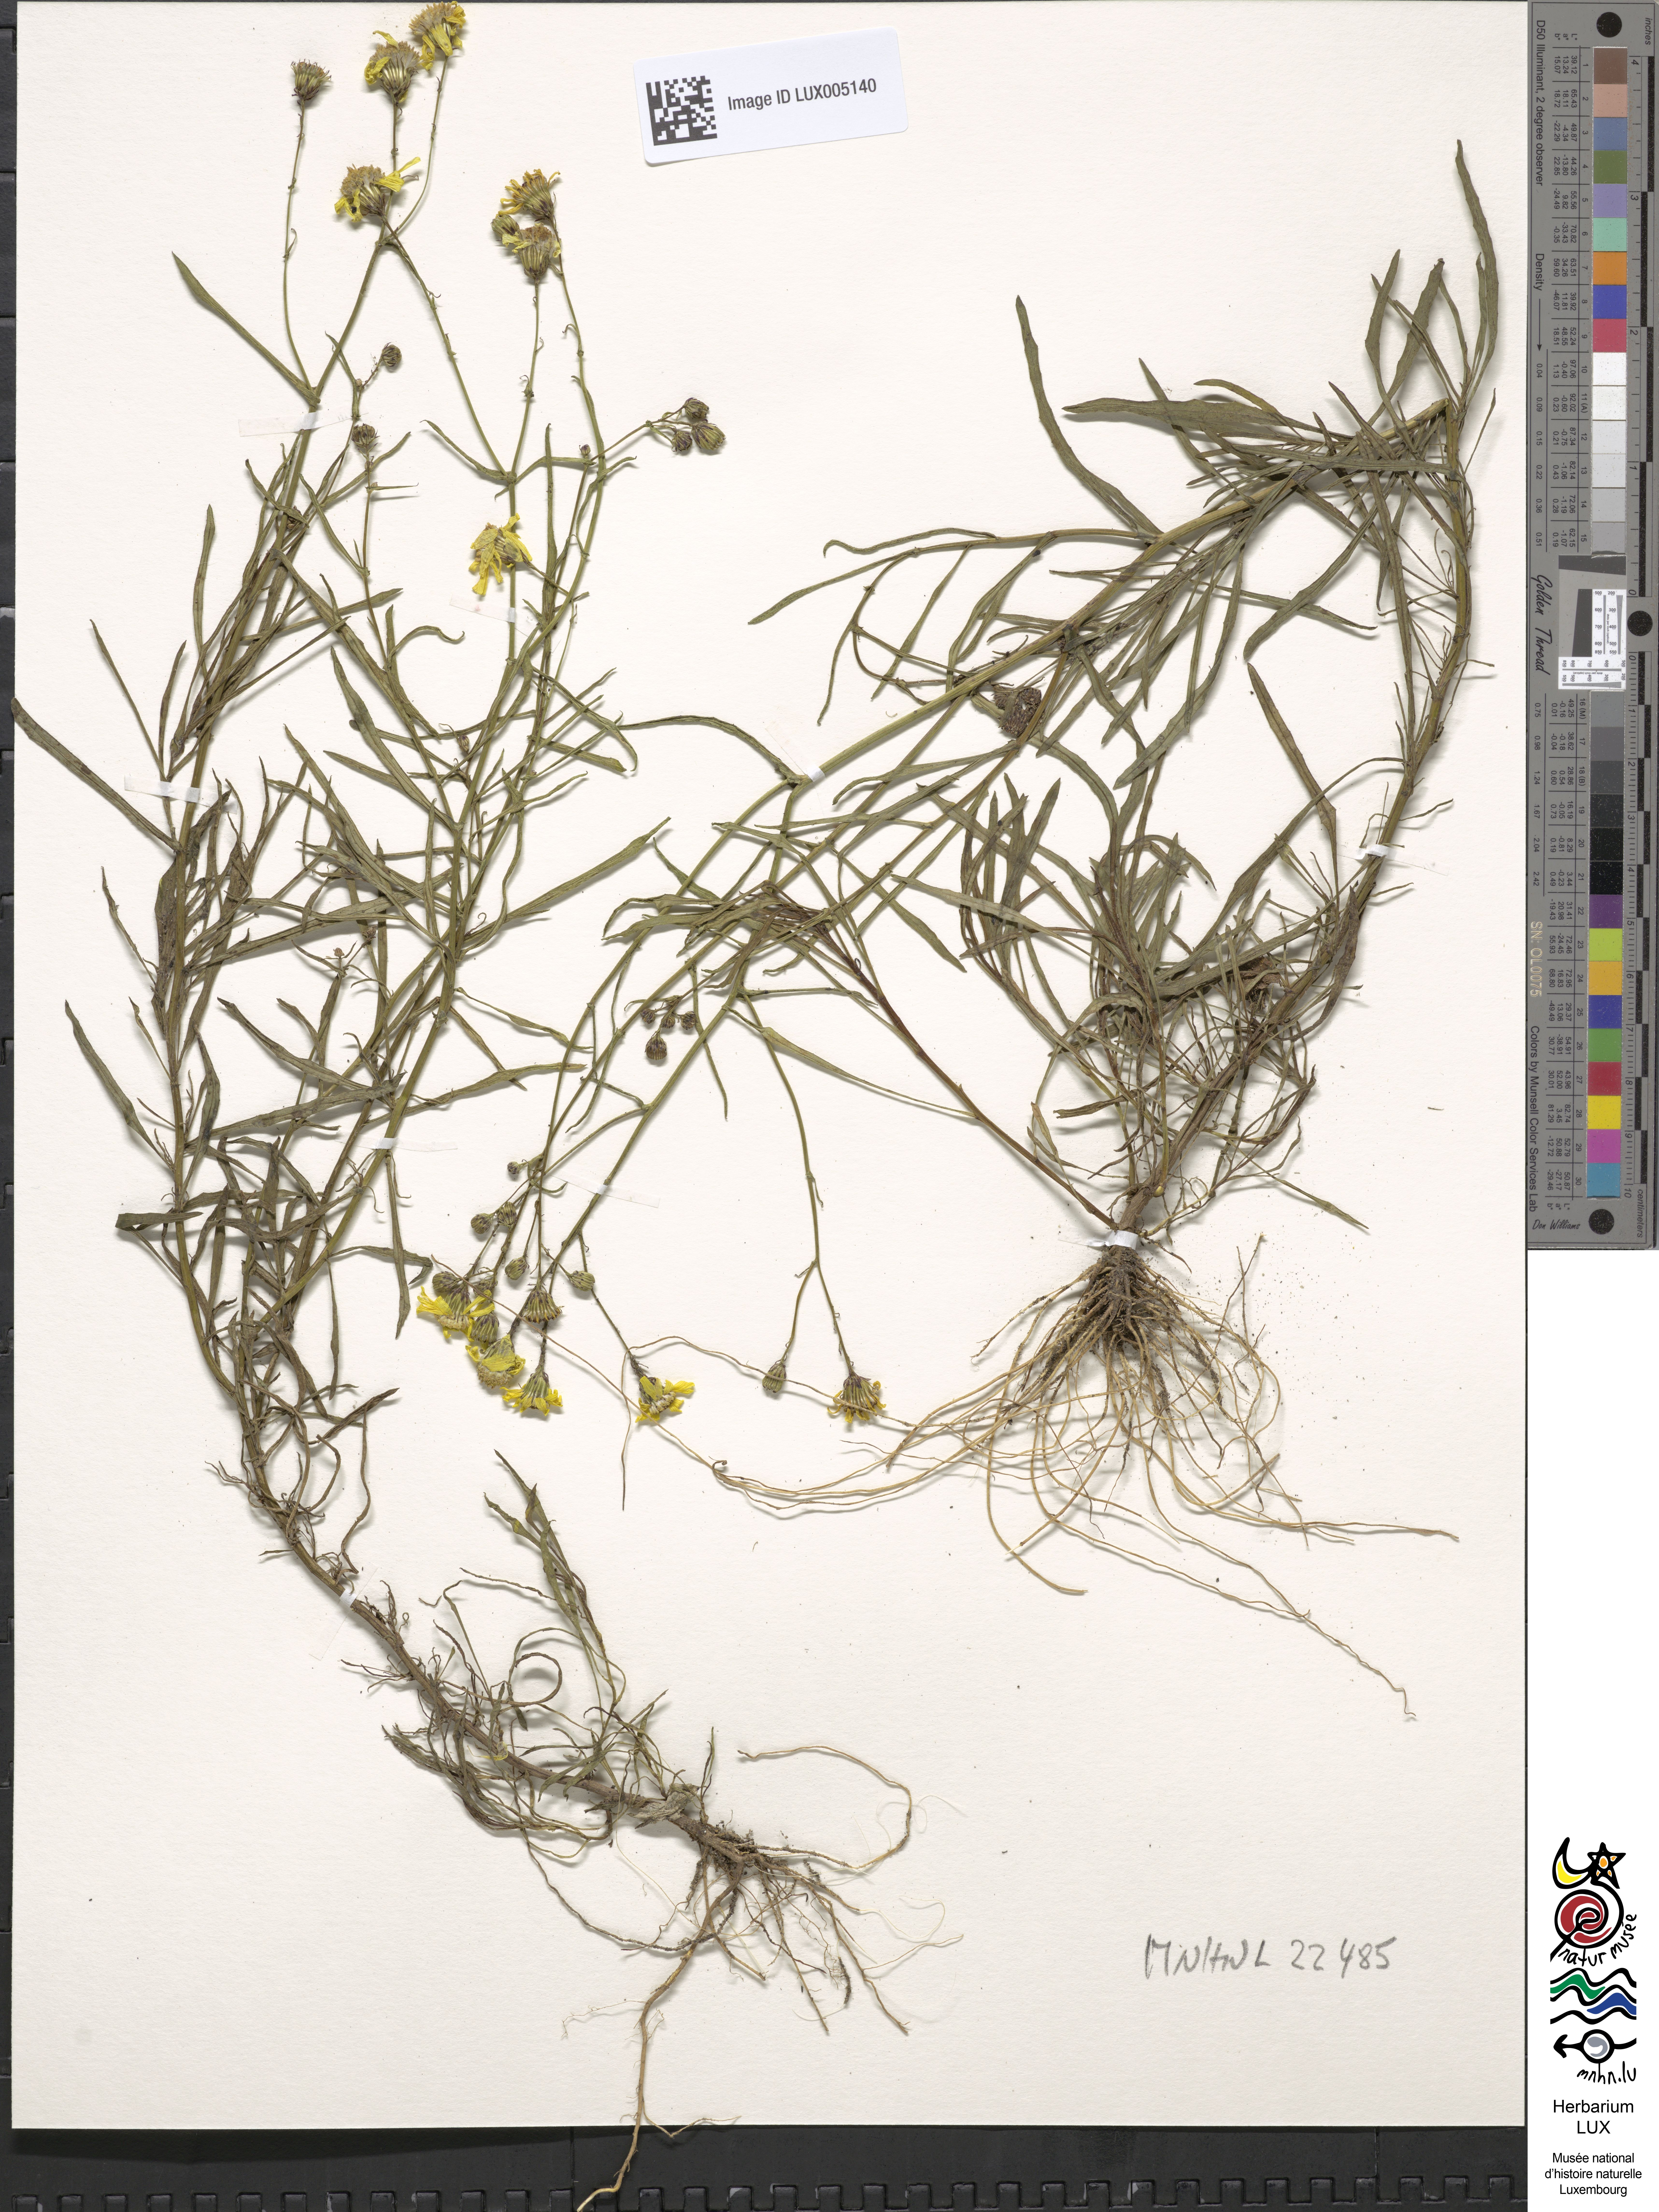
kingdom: Plantae
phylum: Tracheophyta
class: Magnoliopsida
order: Asterales
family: Asteraceae
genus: Senecio
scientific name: Senecio inaequidens
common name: Narrow-leaved ragwort
